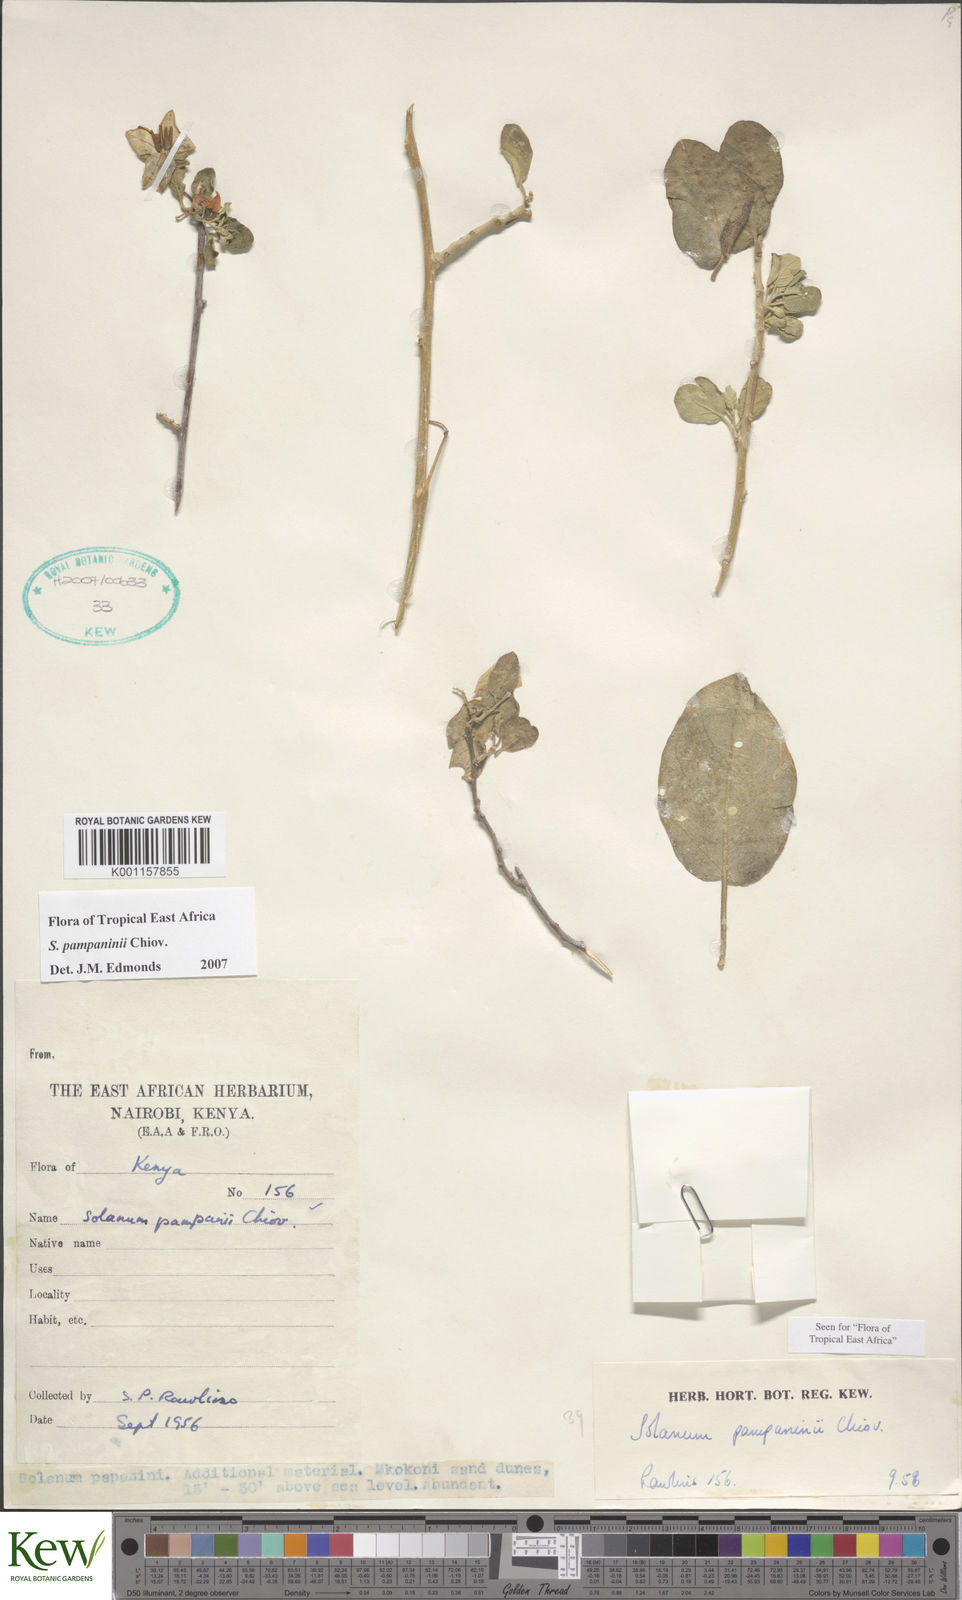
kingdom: Plantae
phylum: Tracheophyta
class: Magnoliopsida
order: Solanales
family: Solanaceae
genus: Solanum
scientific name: Solanum pampaninii
